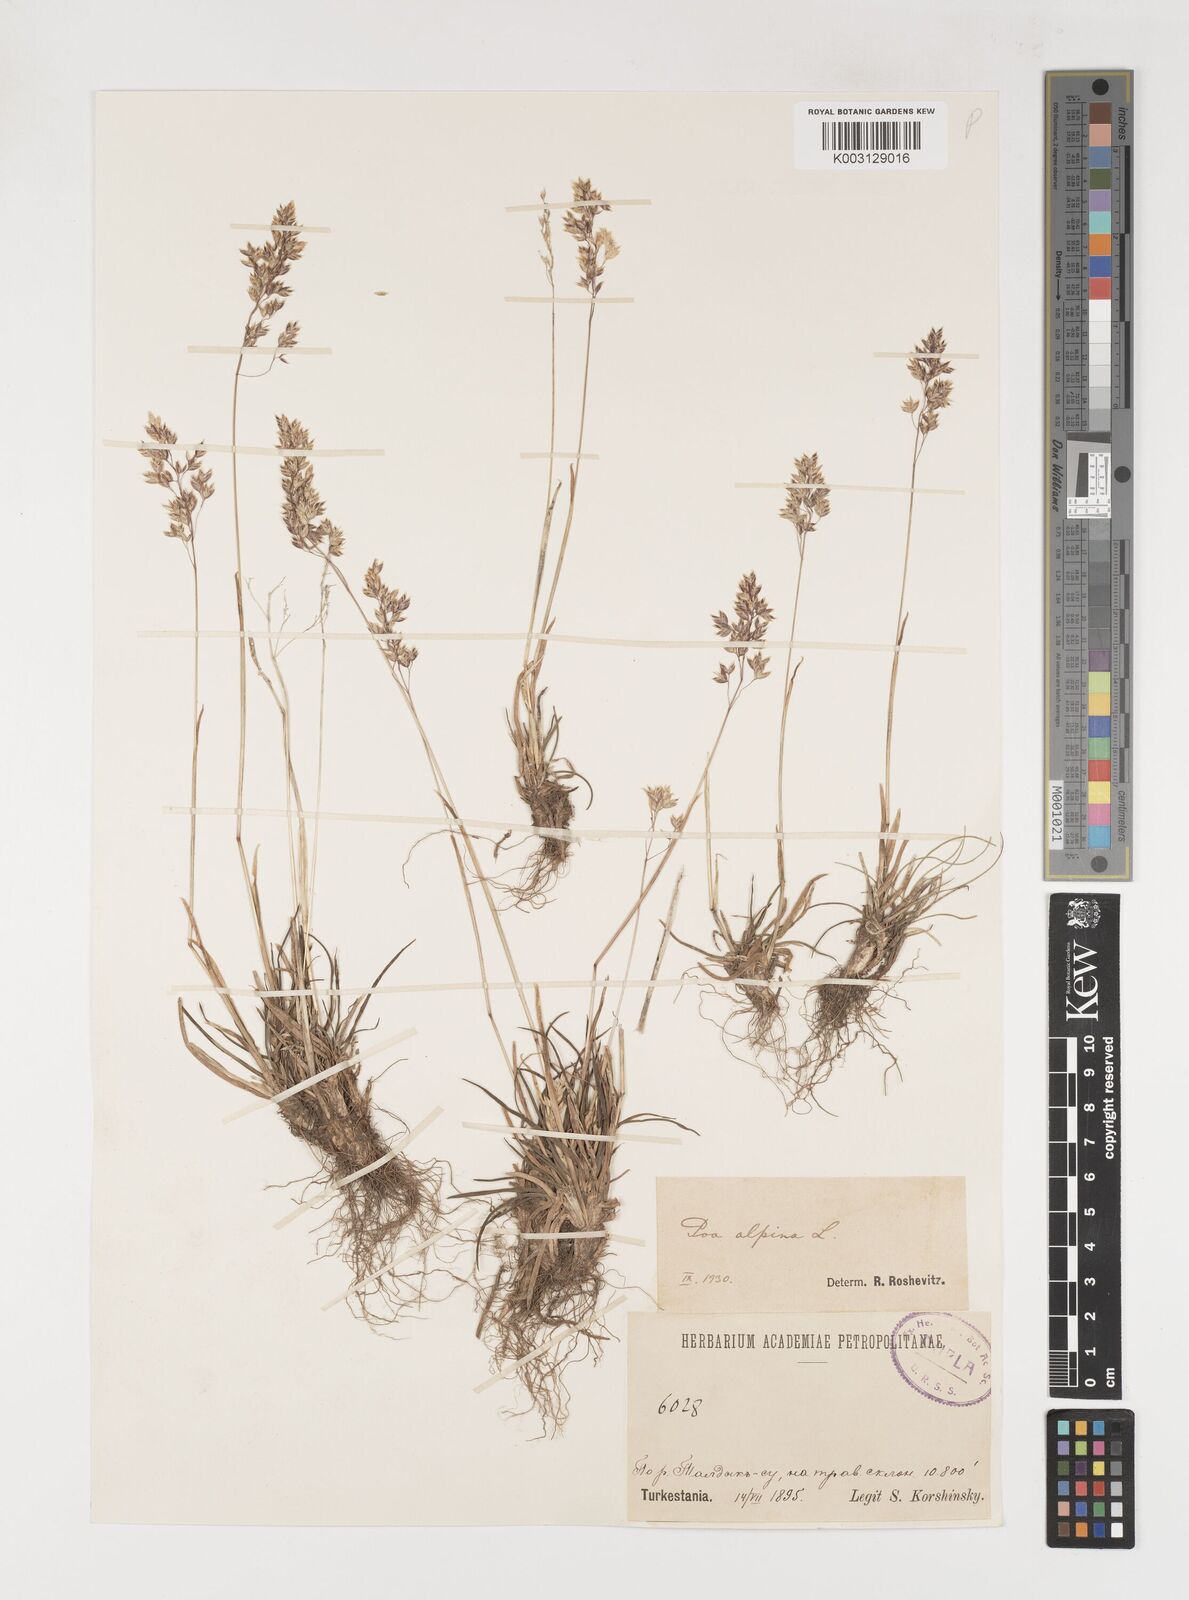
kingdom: Plantae
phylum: Tracheophyta
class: Liliopsida
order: Poales
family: Poaceae
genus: Poa
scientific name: Poa alpina
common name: Alpine bluegrass
